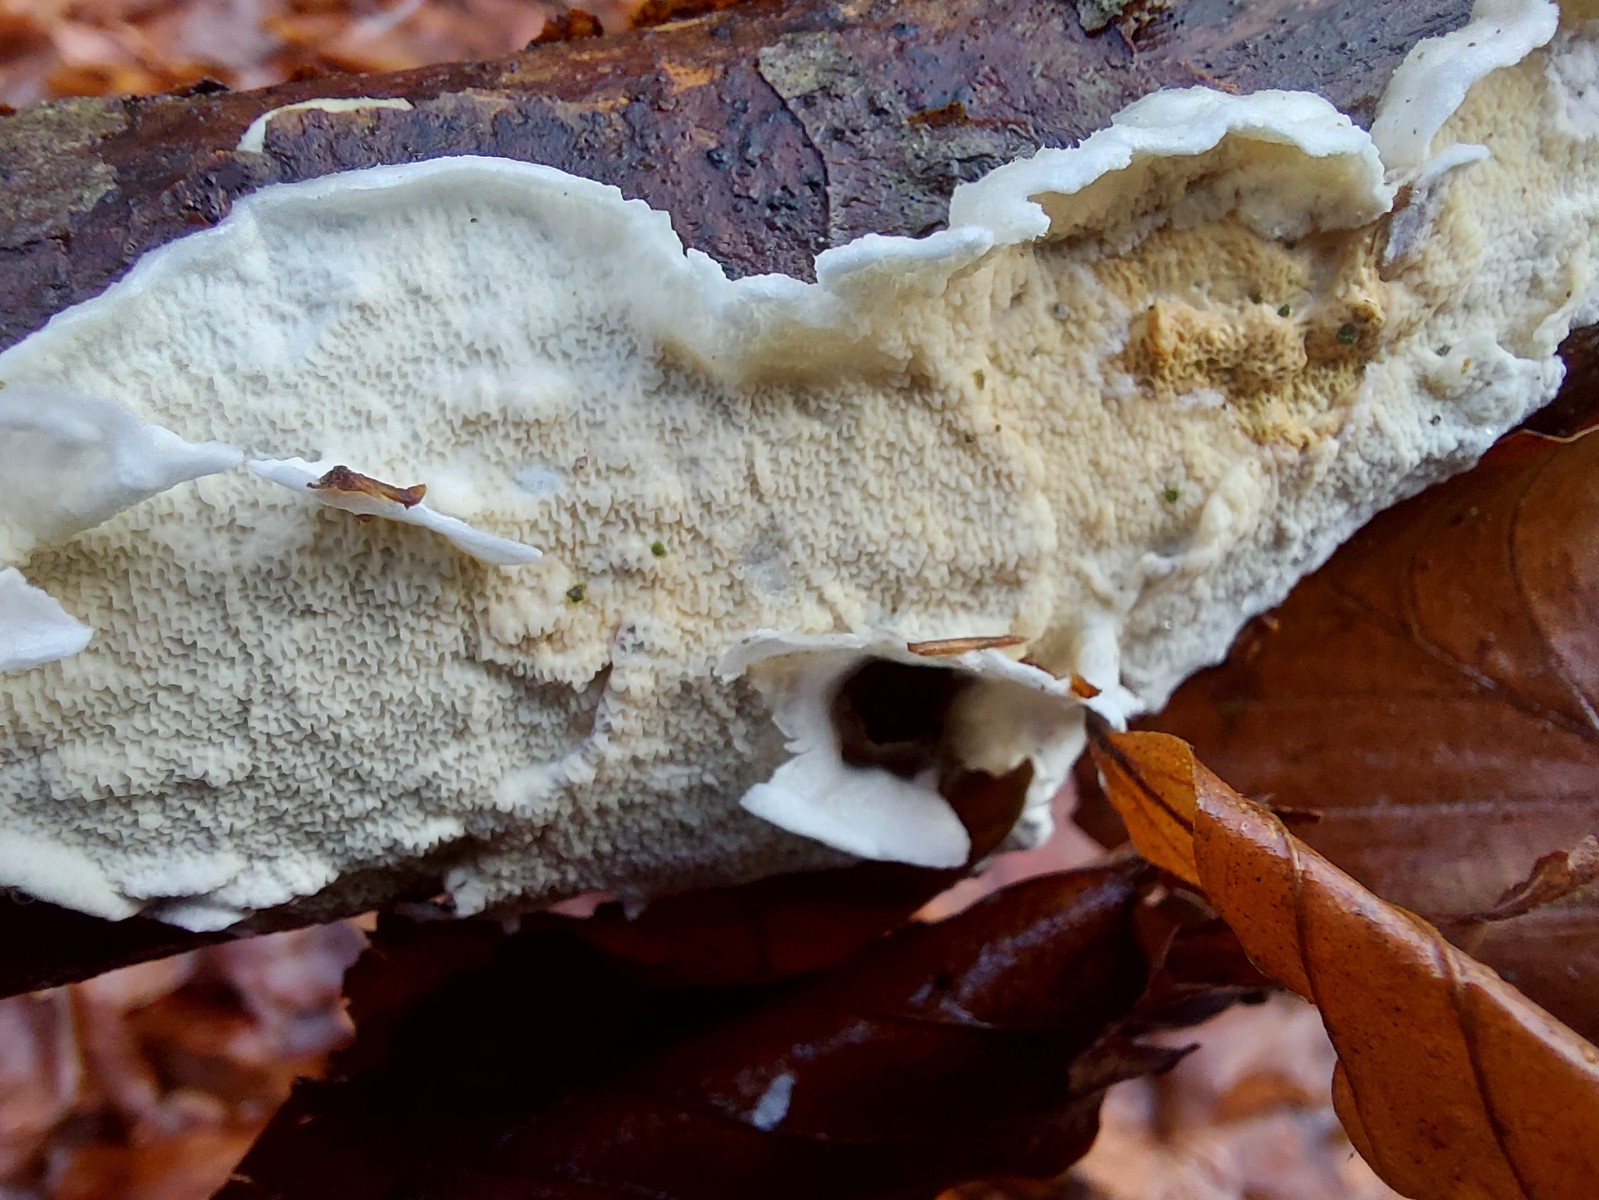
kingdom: Fungi
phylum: Basidiomycota
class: Agaricomycetes
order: Polyporales
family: Irpicaceae
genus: Byssomerulius
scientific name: Byssomerulius corium
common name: læder-åresvamp
